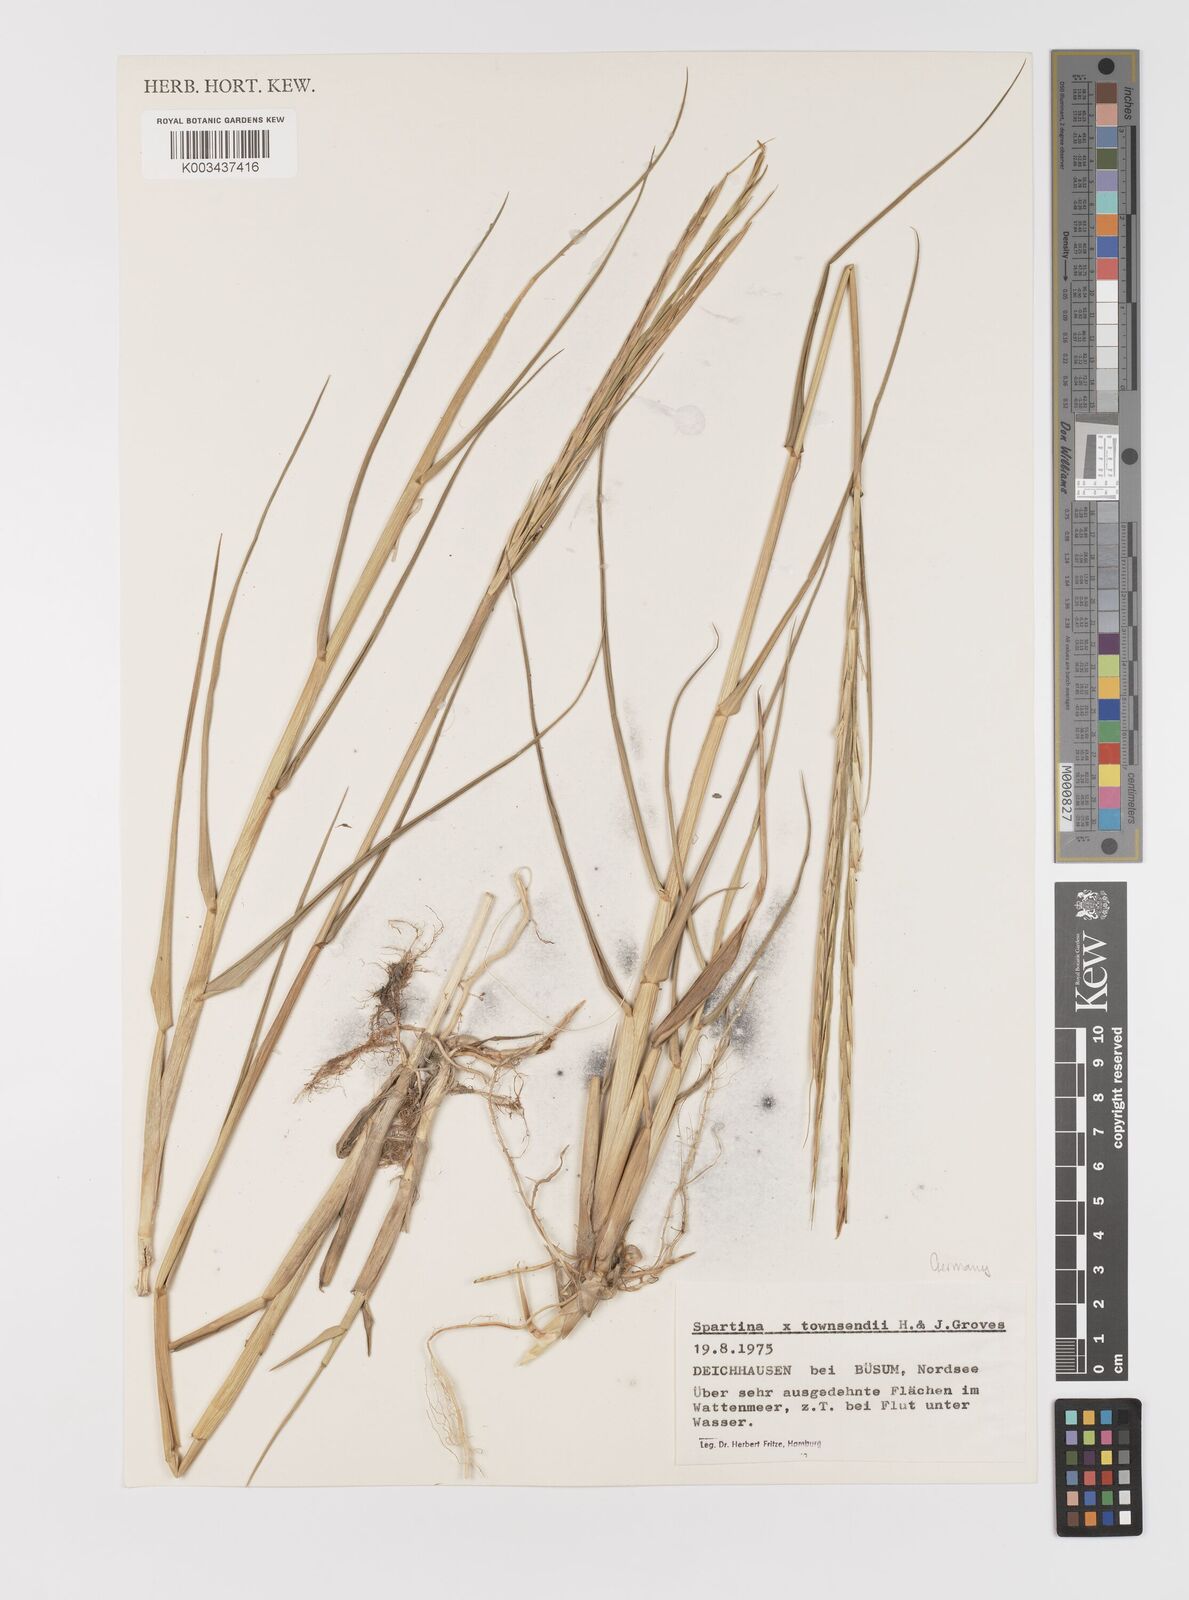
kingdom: Plantae
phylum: Tracheophyta
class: Liliopsida
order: Poales
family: Poaceae
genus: Sporobolus
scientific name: Sporobolus townsendii
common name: Townsend's cordgrass
